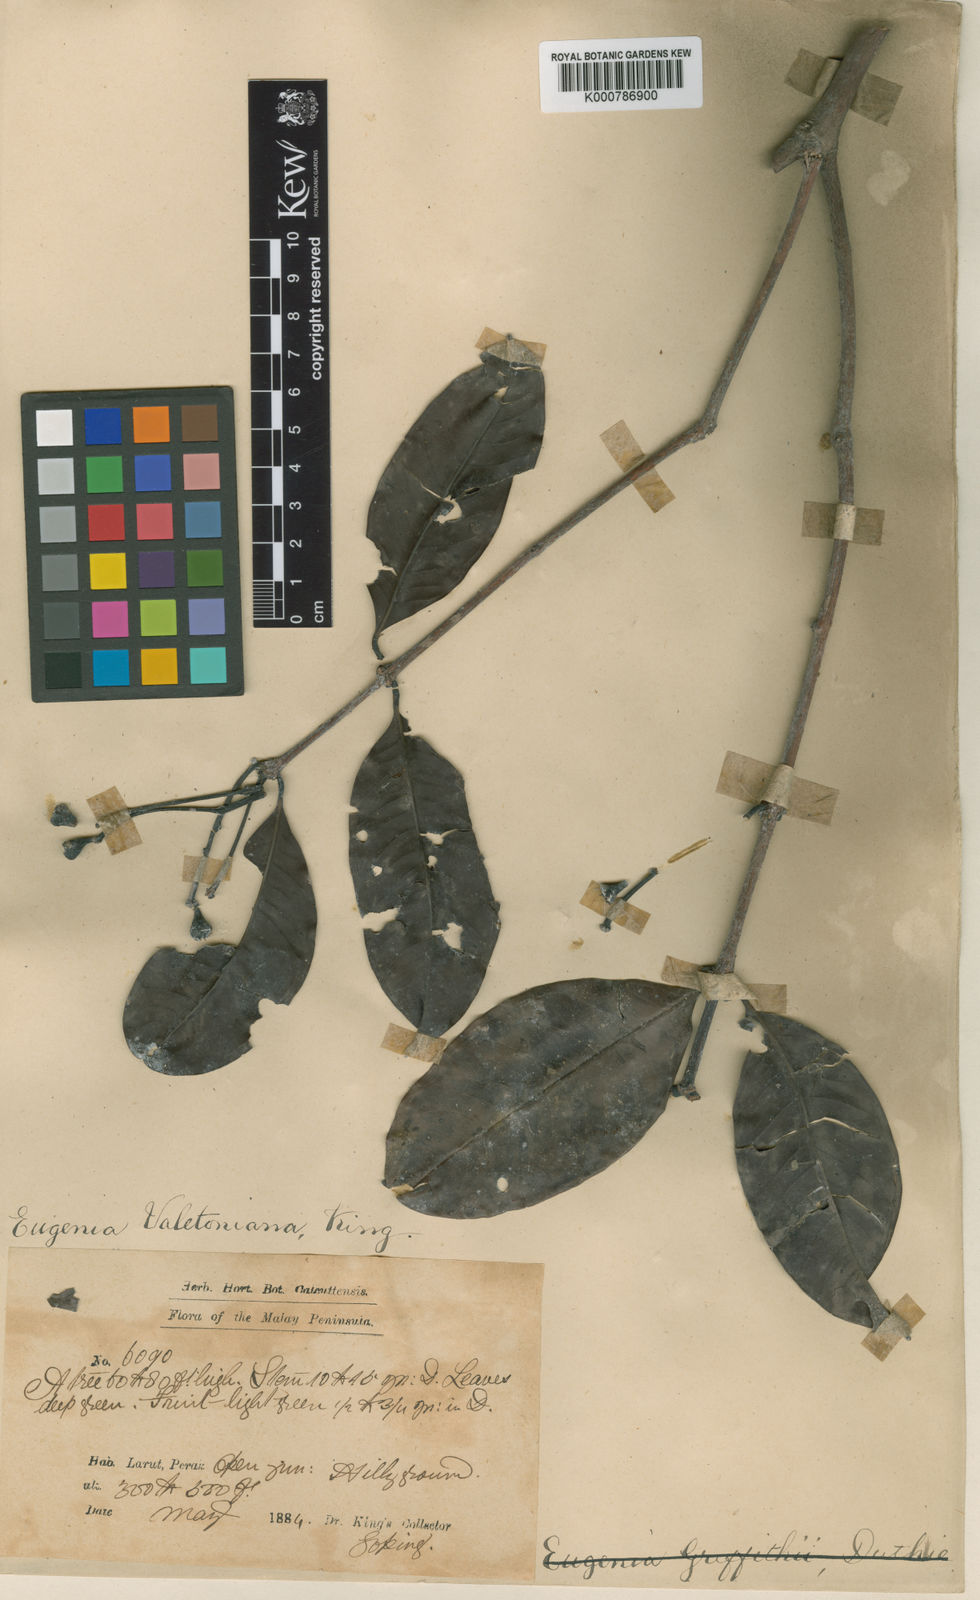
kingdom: Plantae
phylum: Tracheophyta
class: Magnoliopsida
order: Myrtales
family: Myrtaceae
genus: Syzygium
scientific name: Syzygium griffithii
